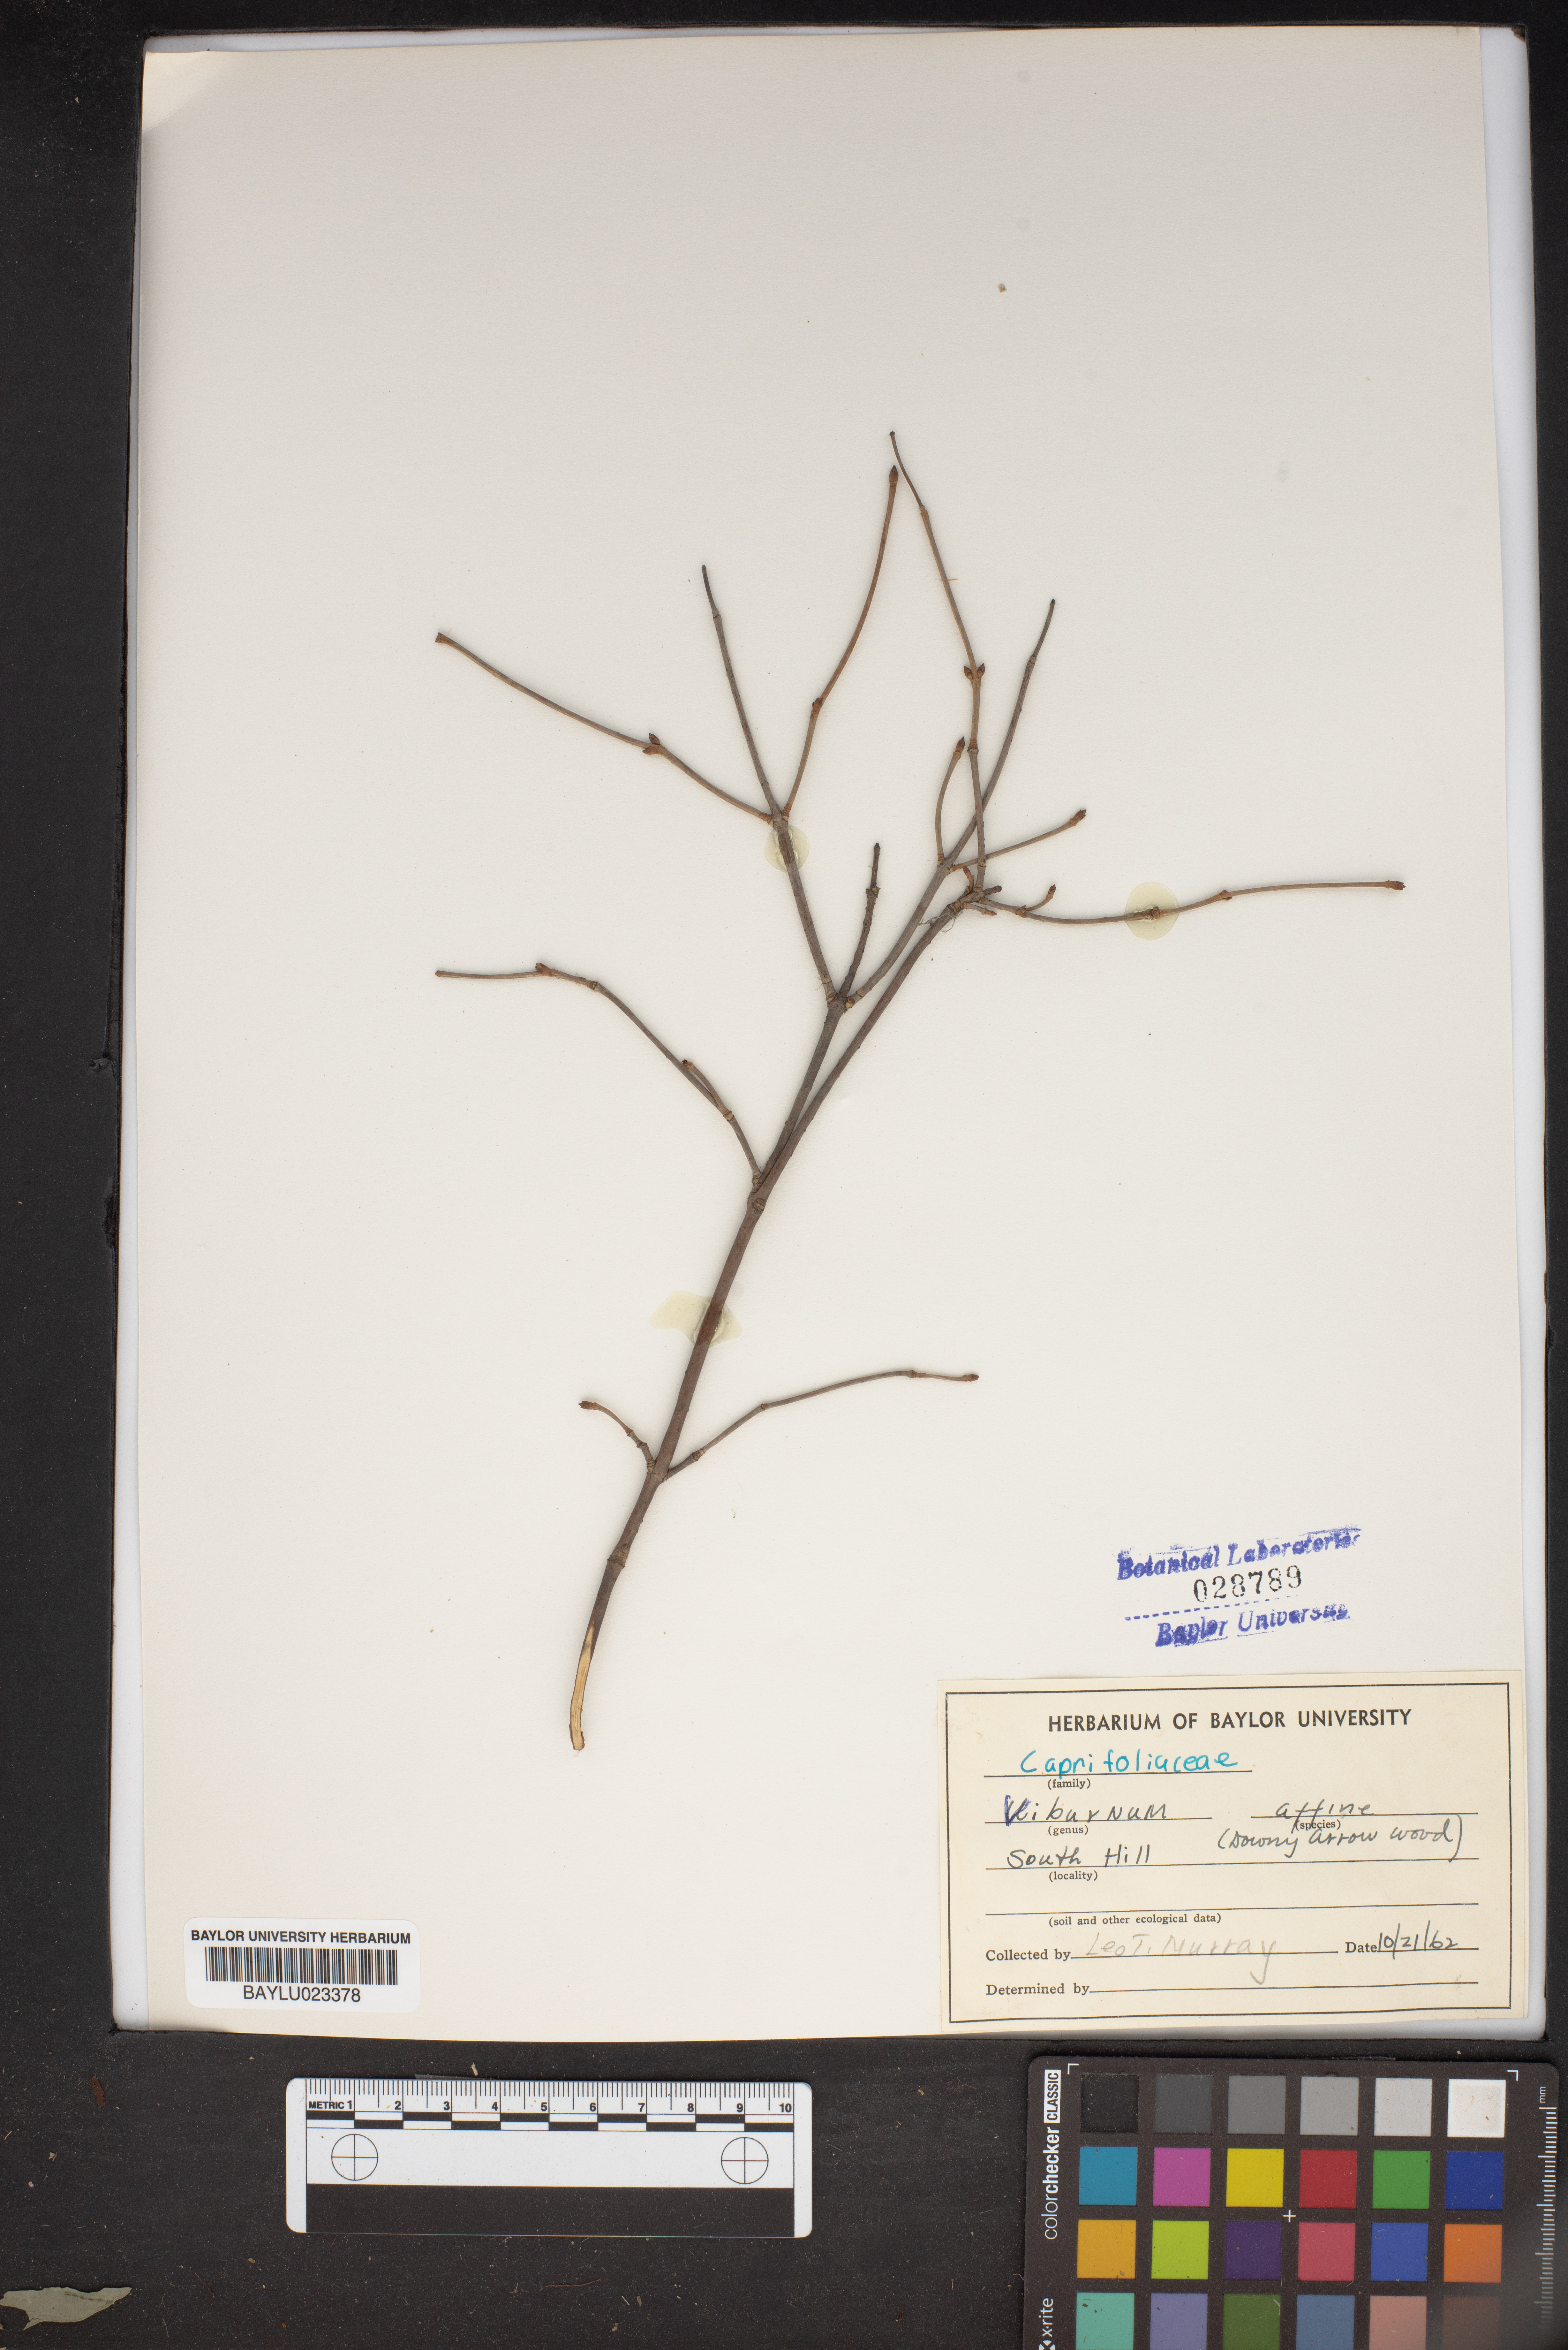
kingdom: Plantae
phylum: Tracheophyta
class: Magnoliopsida
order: Dipsacales
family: Viburnaceae
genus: Viburnum
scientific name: Viburnum rafinesqueanum
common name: Downy arrow-wood
